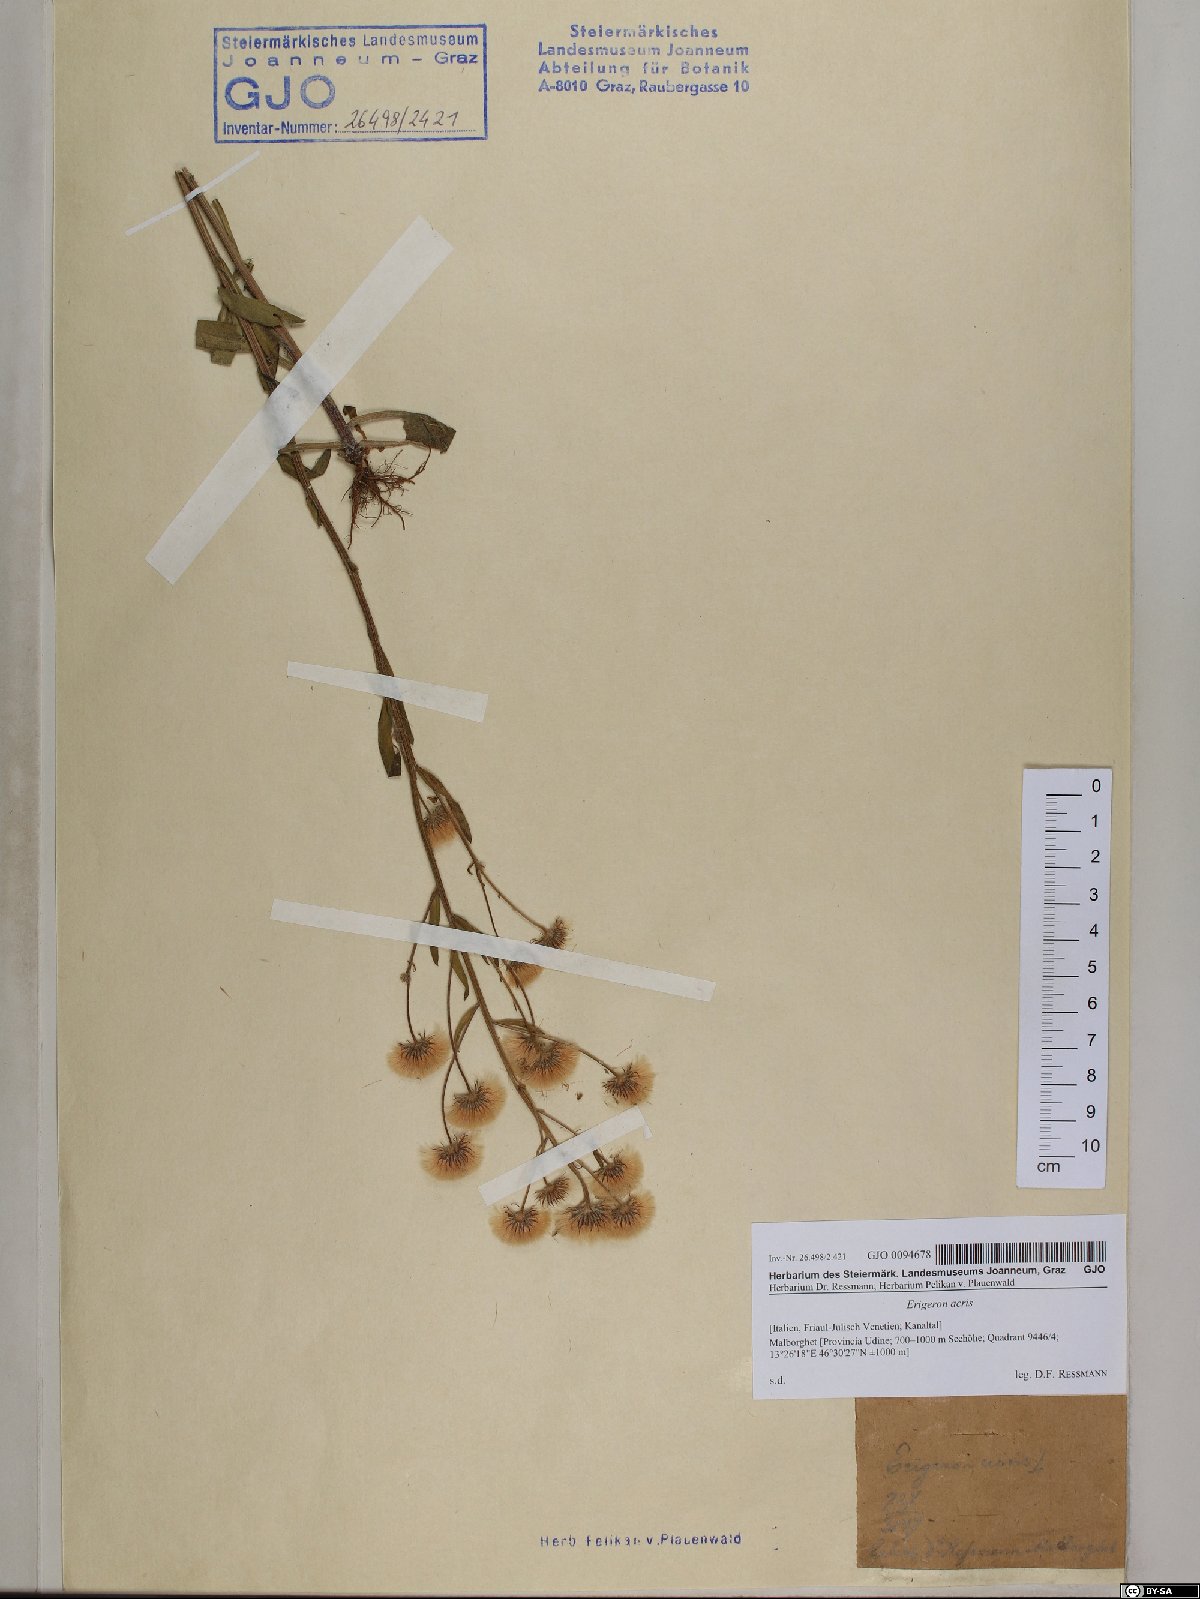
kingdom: Plantae
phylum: Tracheophyta
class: Magnoliopsida
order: Asterales
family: Asteraceae
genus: Erigeron
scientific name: Erigeron acris
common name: Blue fleabane
